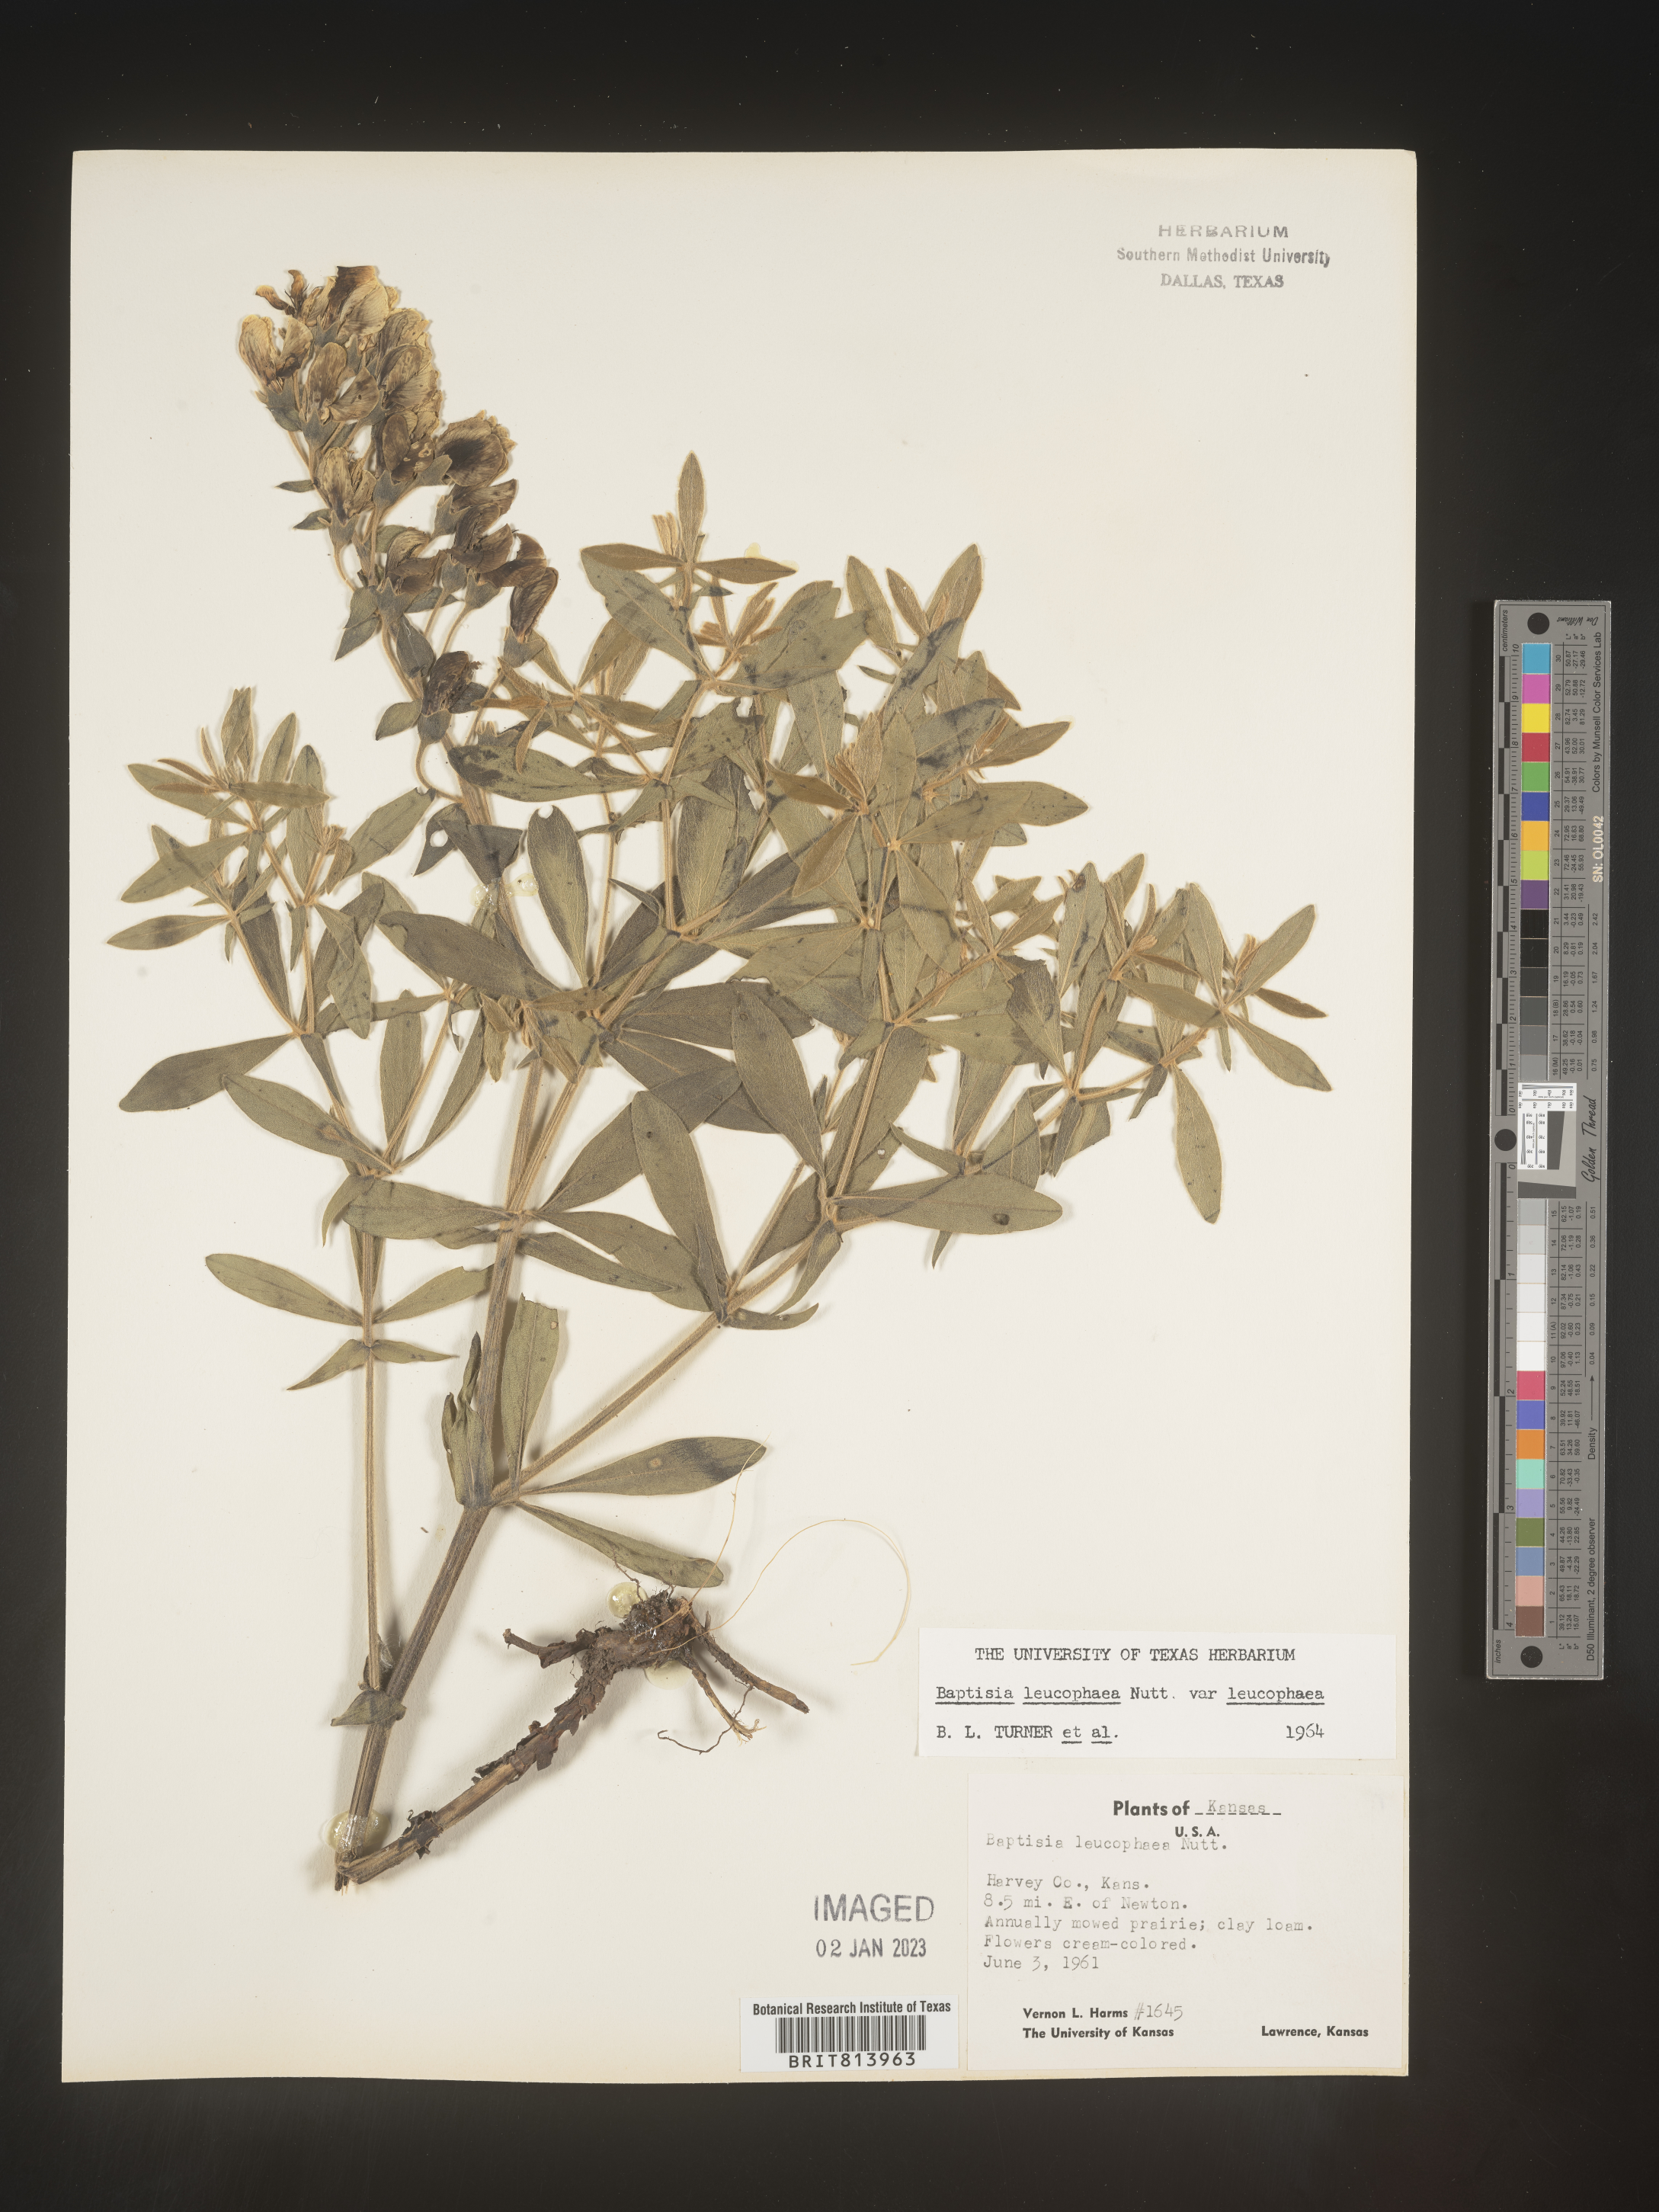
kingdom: Plantae
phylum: Tracheophyta
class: Magnoliopsida
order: Fabales
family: Fabaceae
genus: Baptisia
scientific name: Baptisia bracteata
